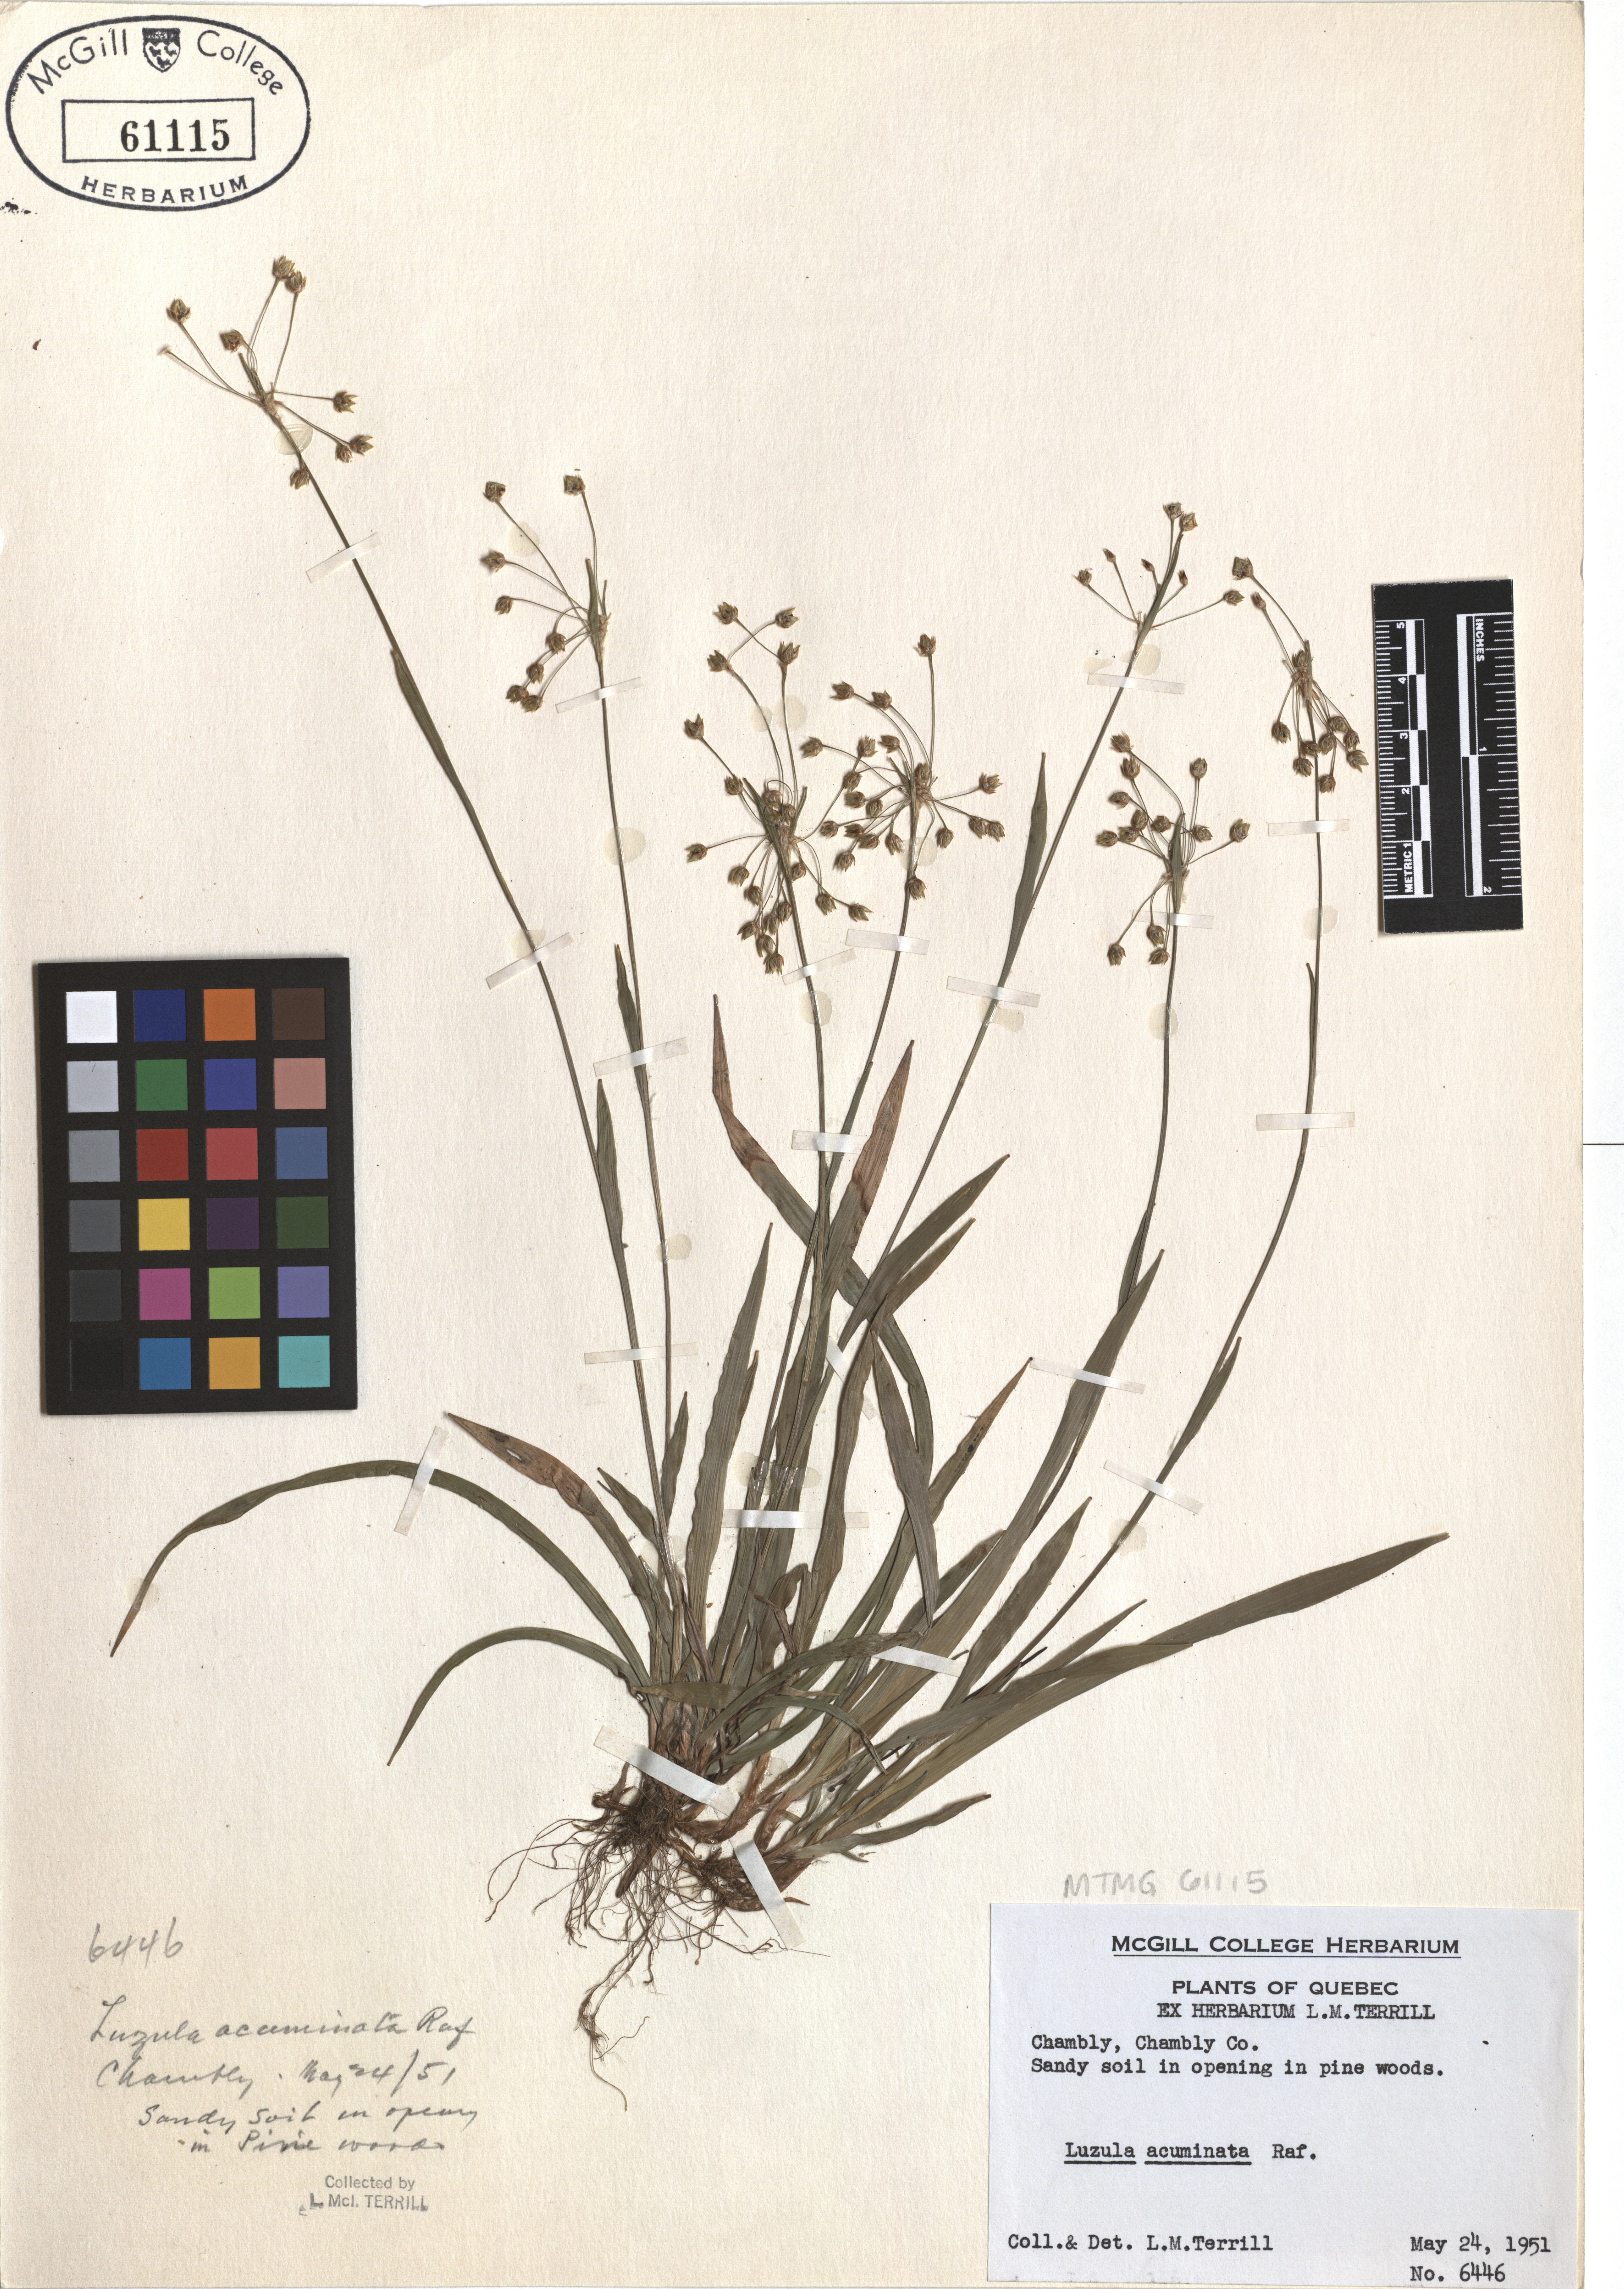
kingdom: Plantae
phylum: Tracheophyta
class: Liliopsida
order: Poales
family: Juncaceae
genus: Luzula
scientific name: Luzula acuminata
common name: Hairy woodrush
